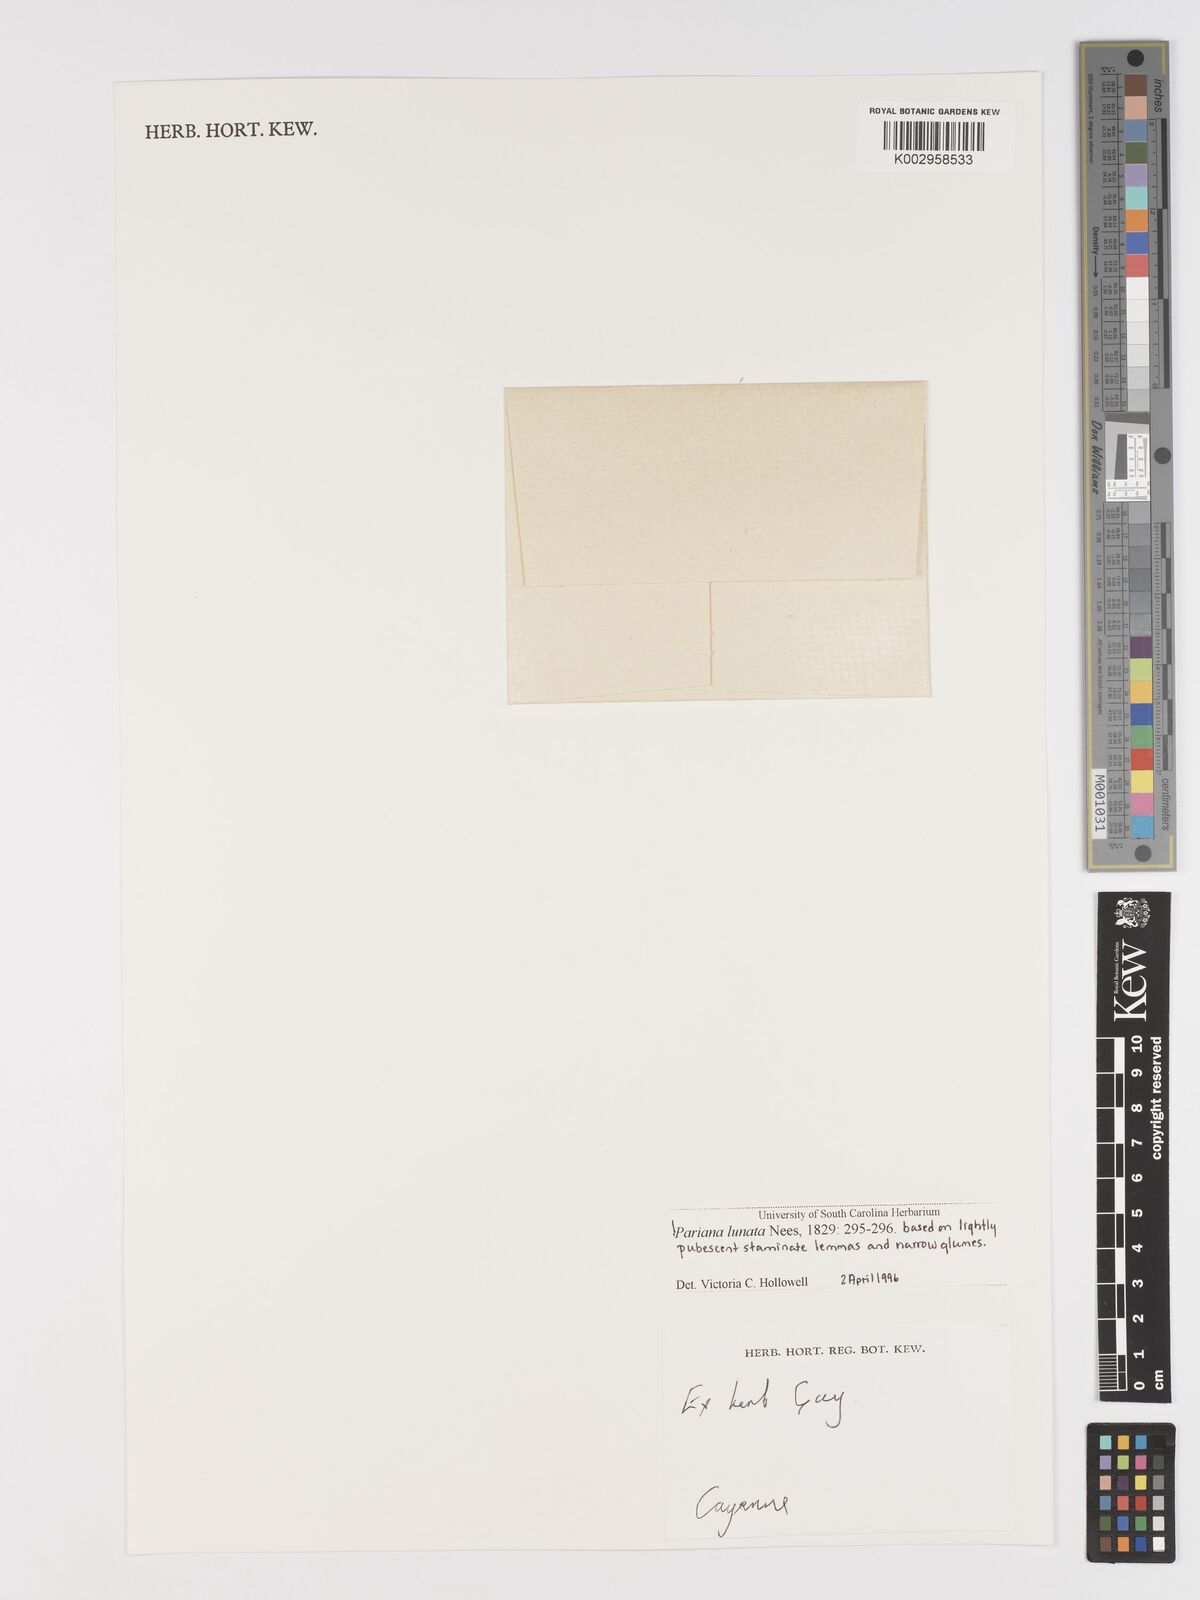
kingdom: Plantae
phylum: Tracheophyta
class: Liliopsida
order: Poales
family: Poaceae
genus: Pariana
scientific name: Pariana campestris
